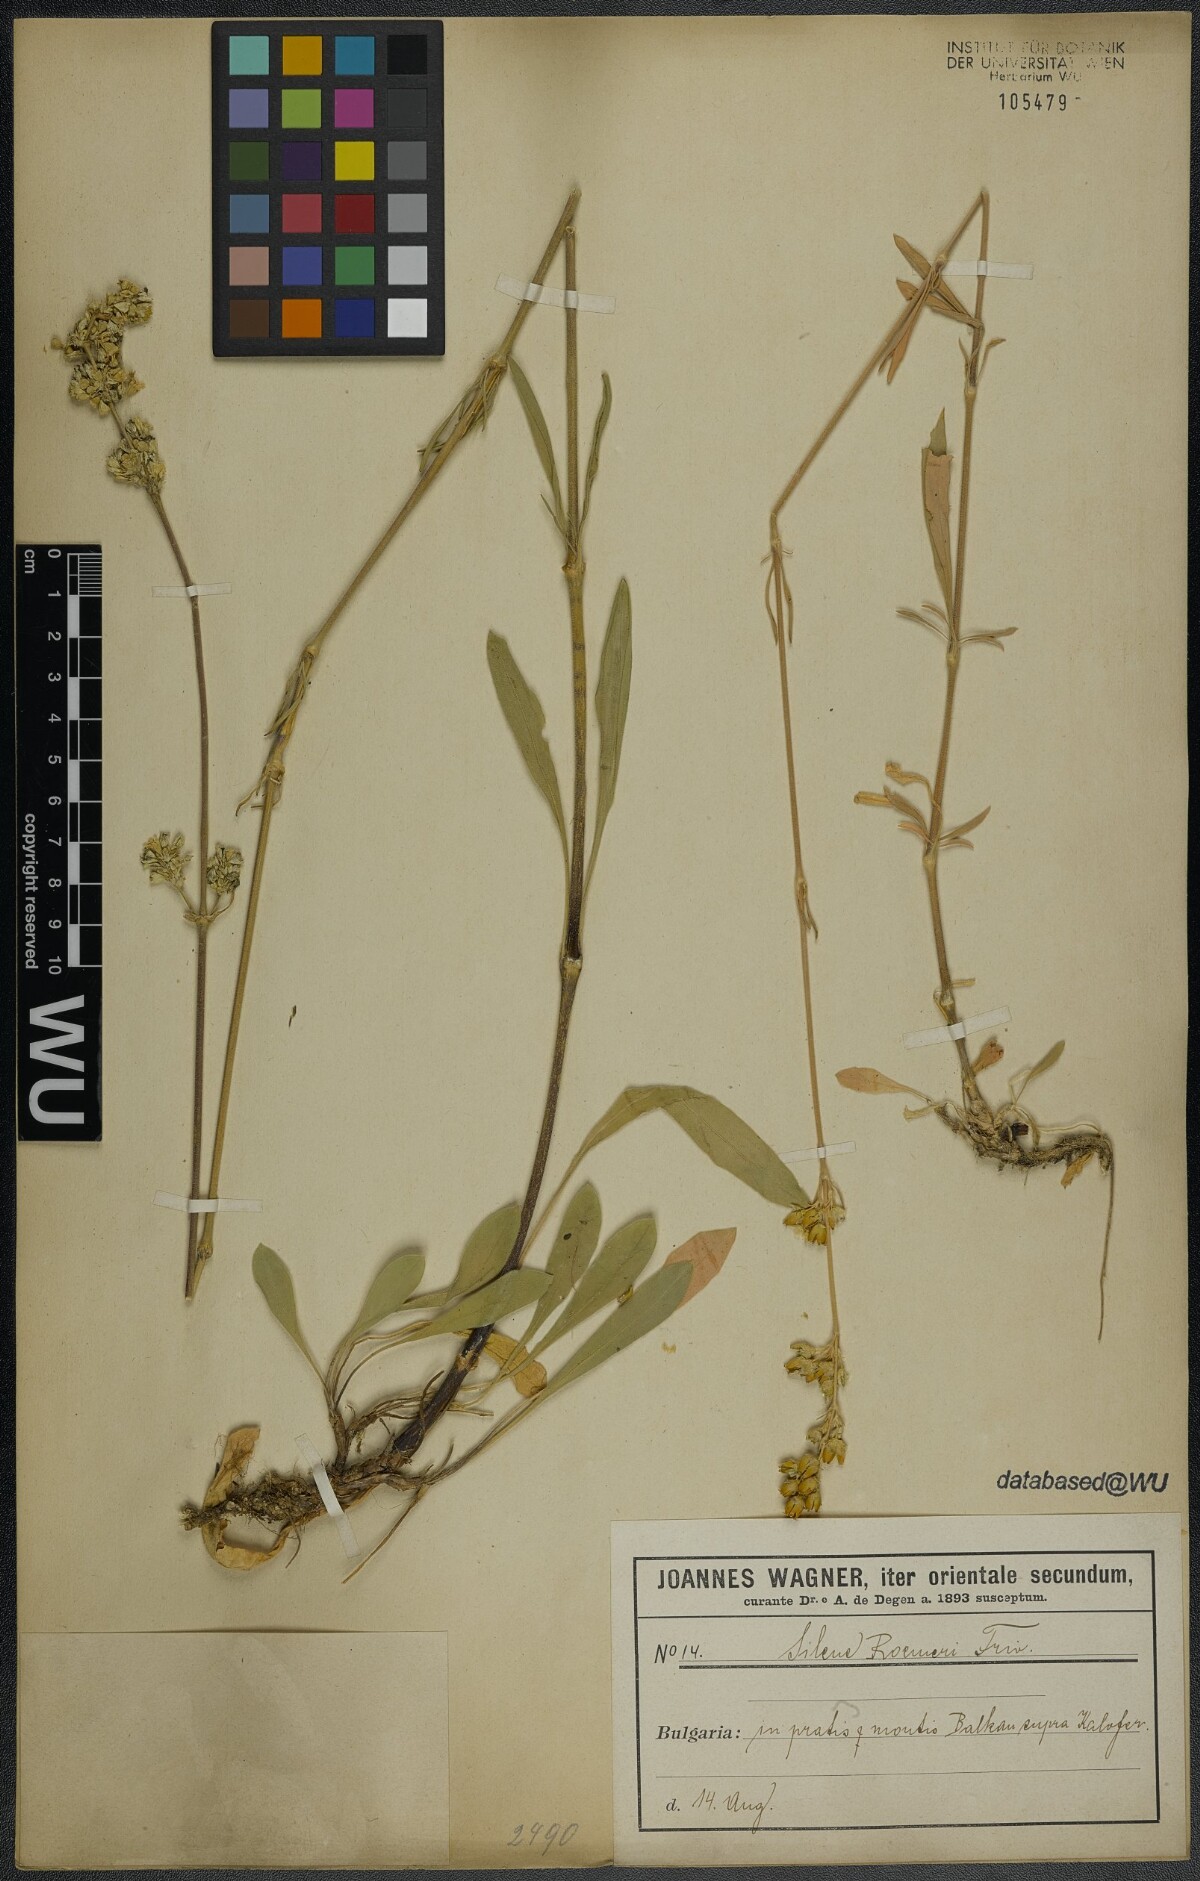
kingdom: Plantae
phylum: Tracheophyta
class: Magnoliopsida
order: Caryophyllales
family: Caryophyllaceae
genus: Silene
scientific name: Silene roemeri
